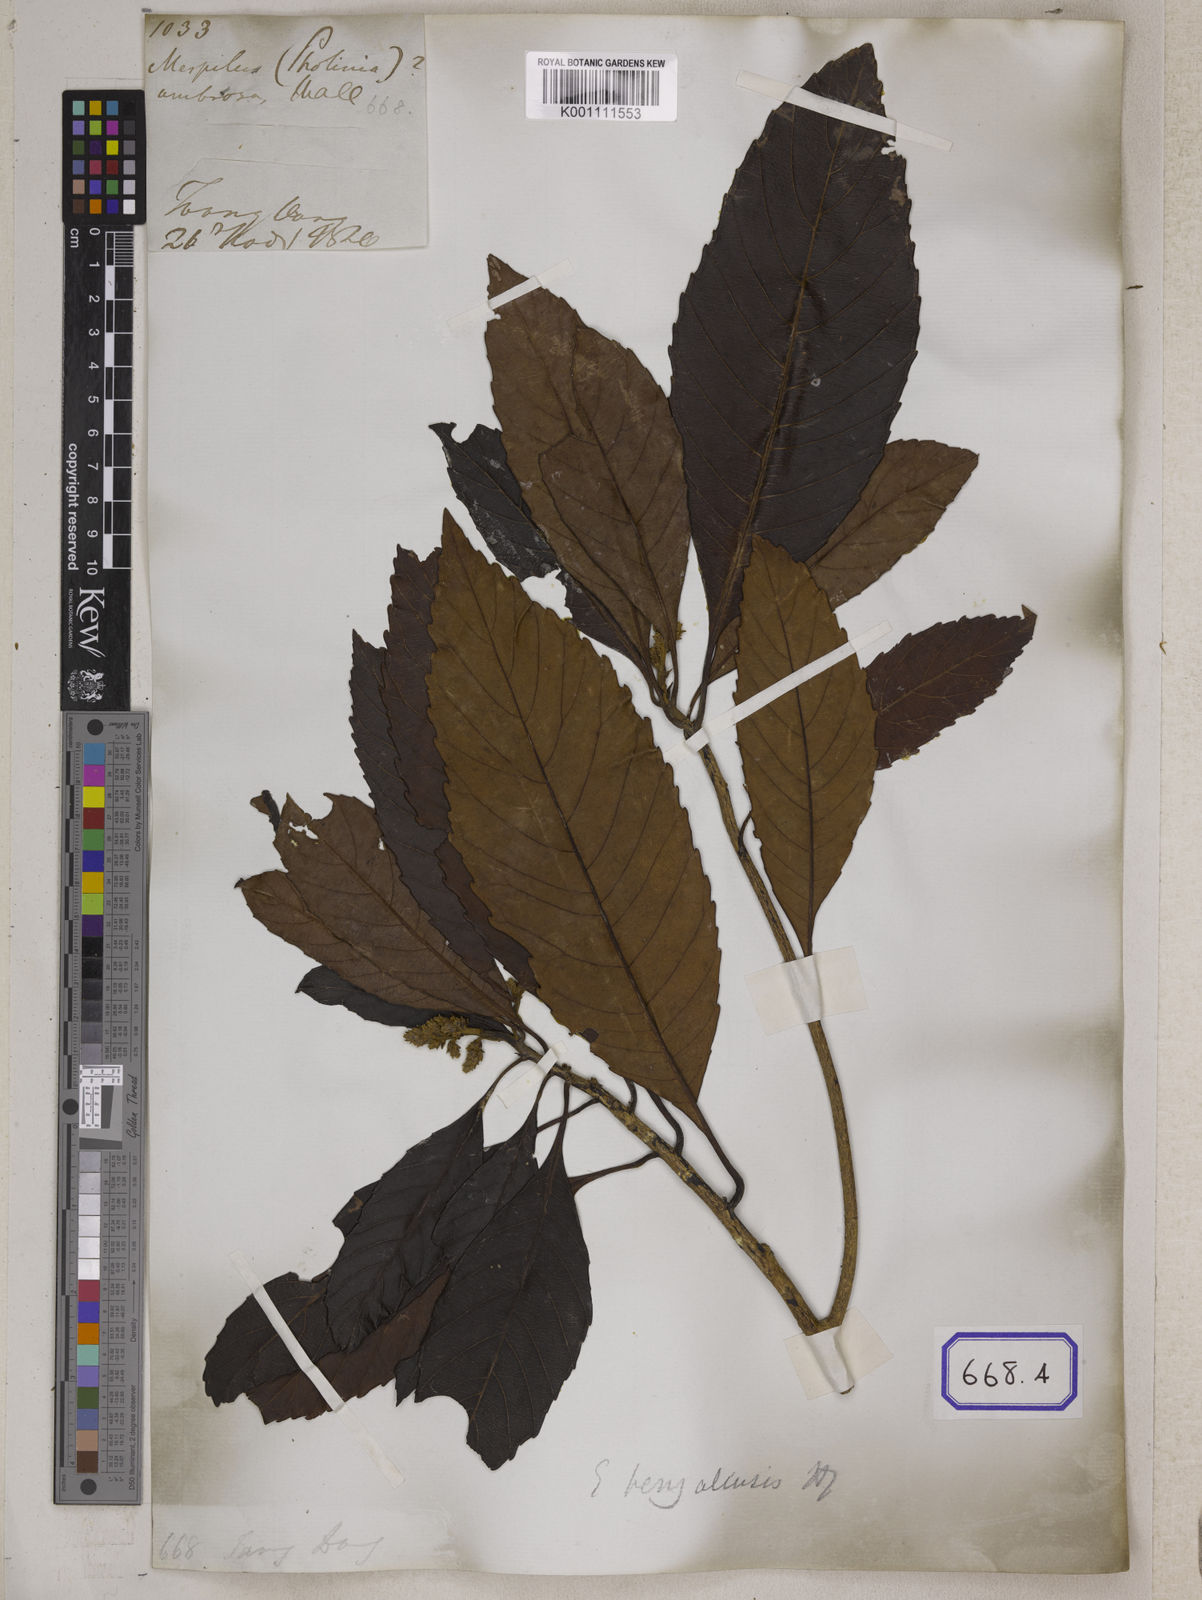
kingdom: Plantae
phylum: Tracheophyta
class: Magnoliopsida
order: Rosales
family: Rosaceae
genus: Rhaphiolepis
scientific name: Rhaphiolepis dubia
